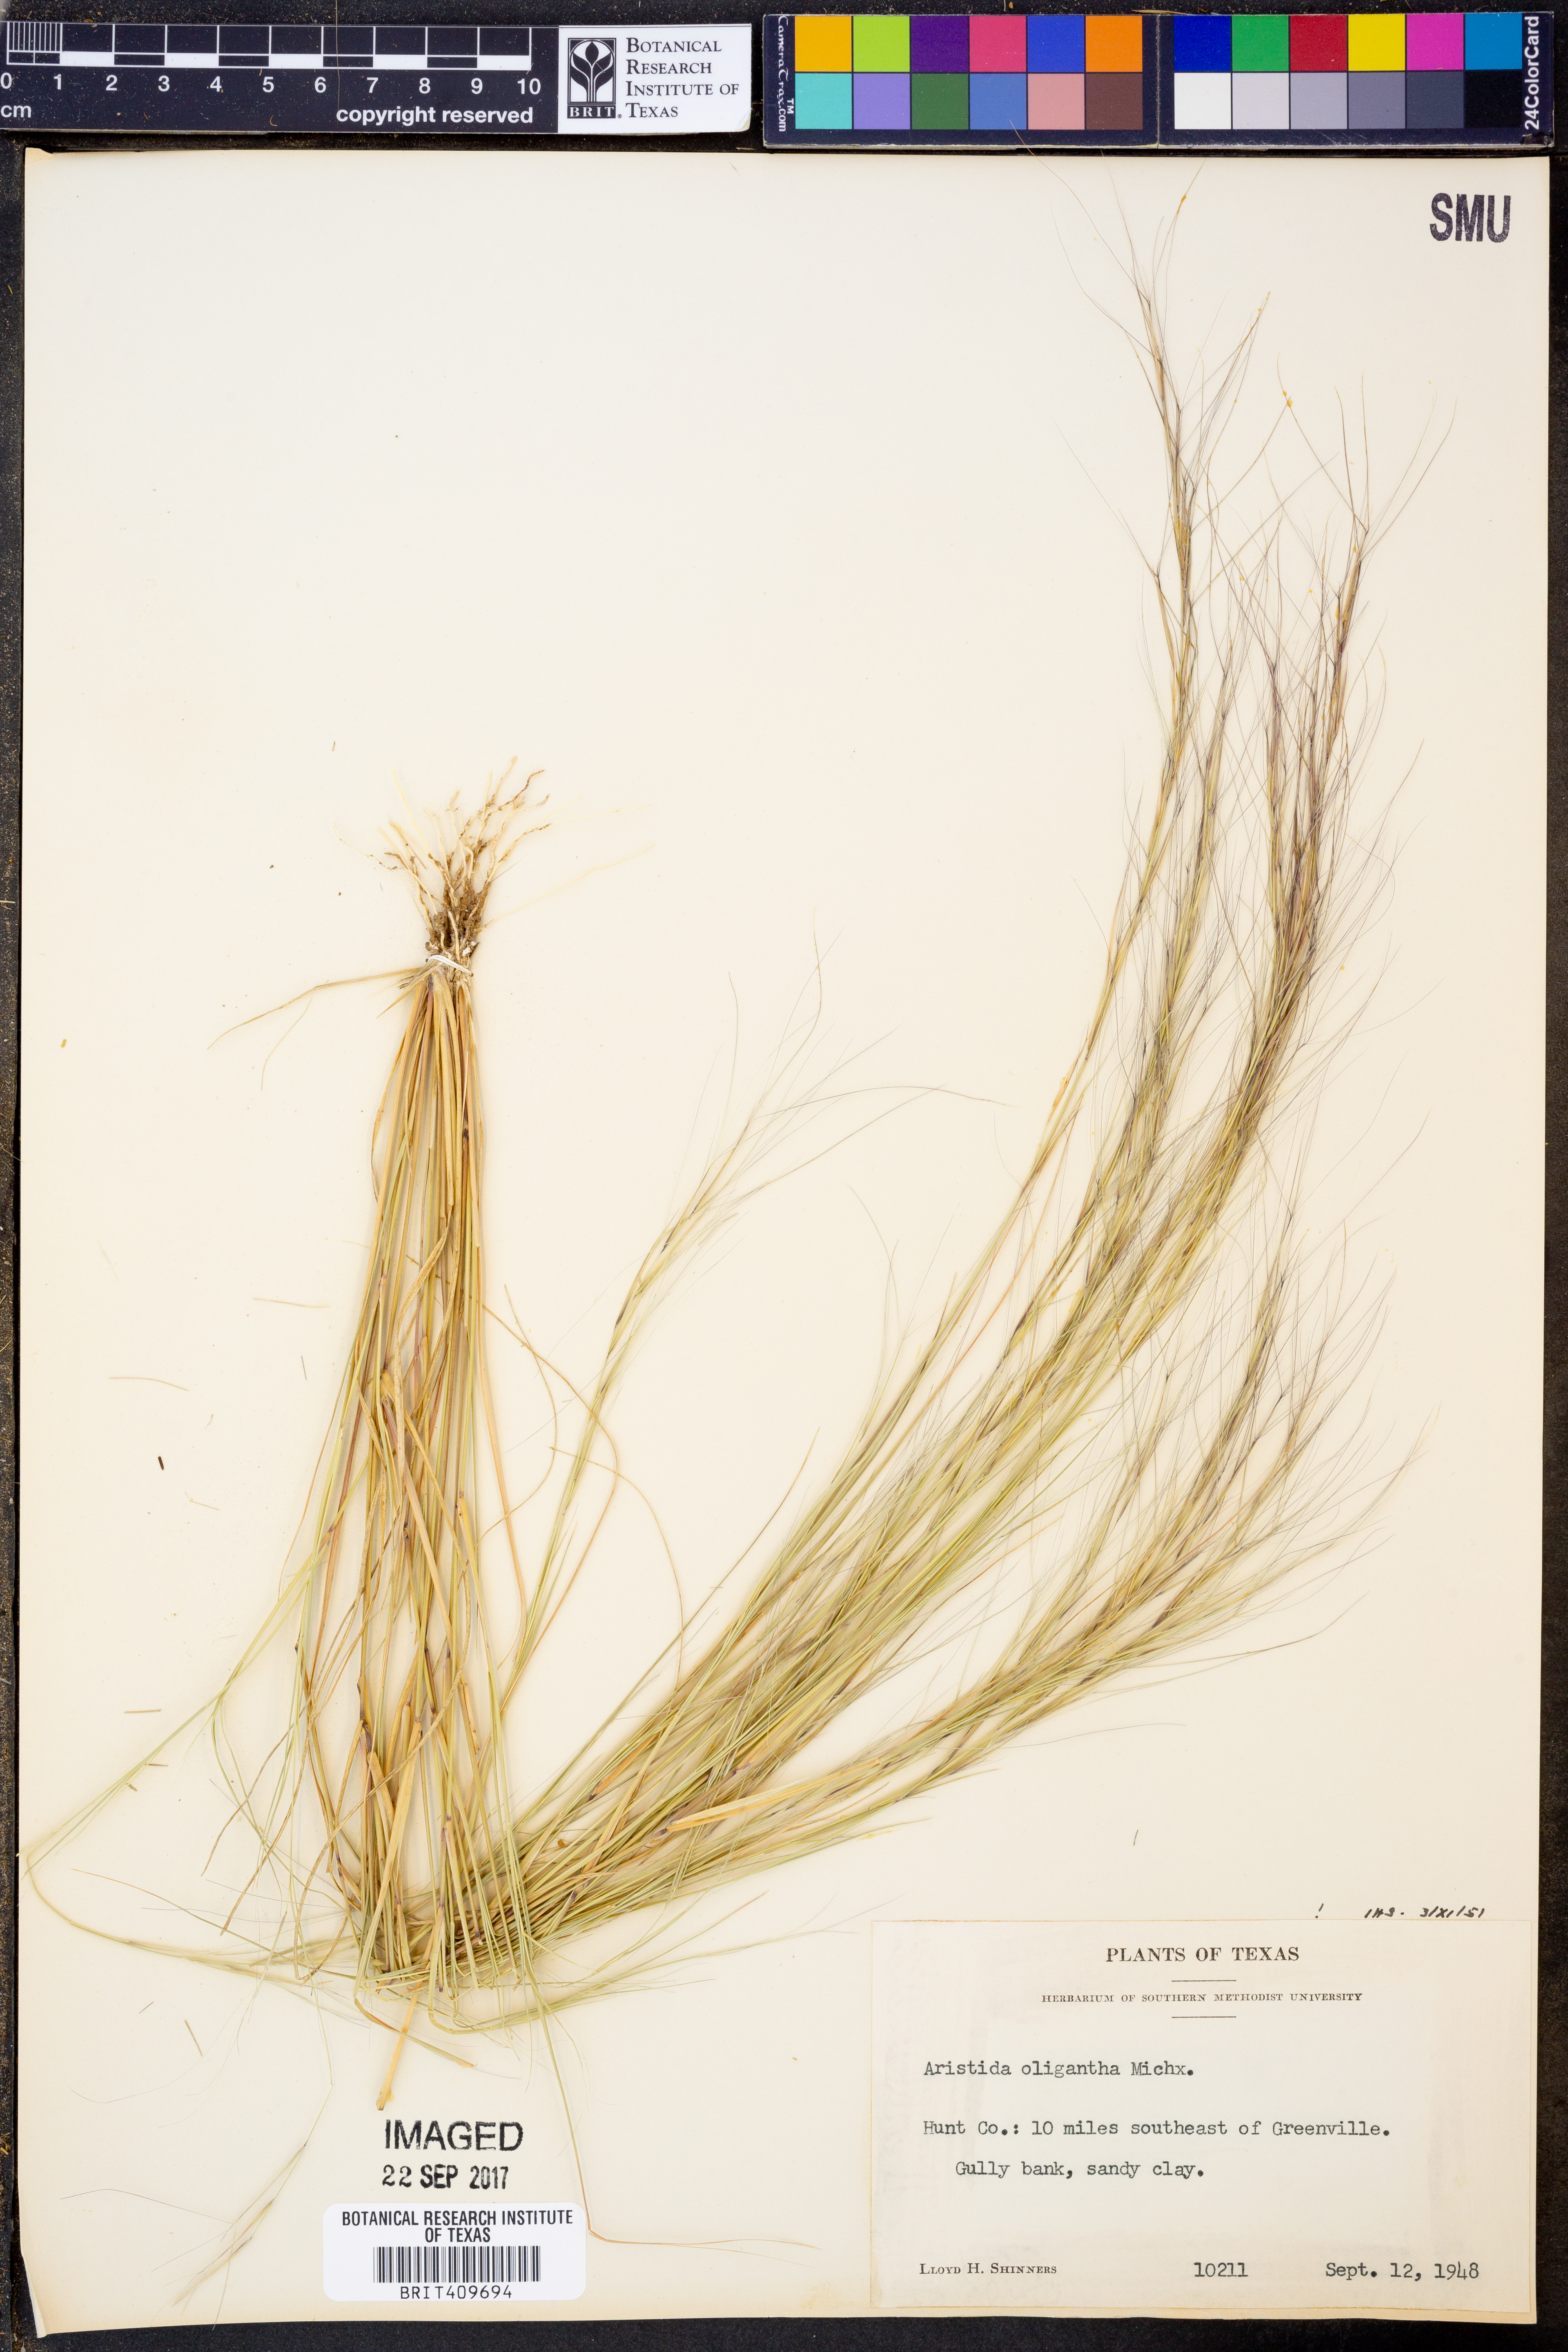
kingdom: Plantae
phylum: Tracheophyta
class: Liliopsida
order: Poales
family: Poaceae
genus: Aristida
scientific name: Aristida oligantha
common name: Few-flowered aristida
